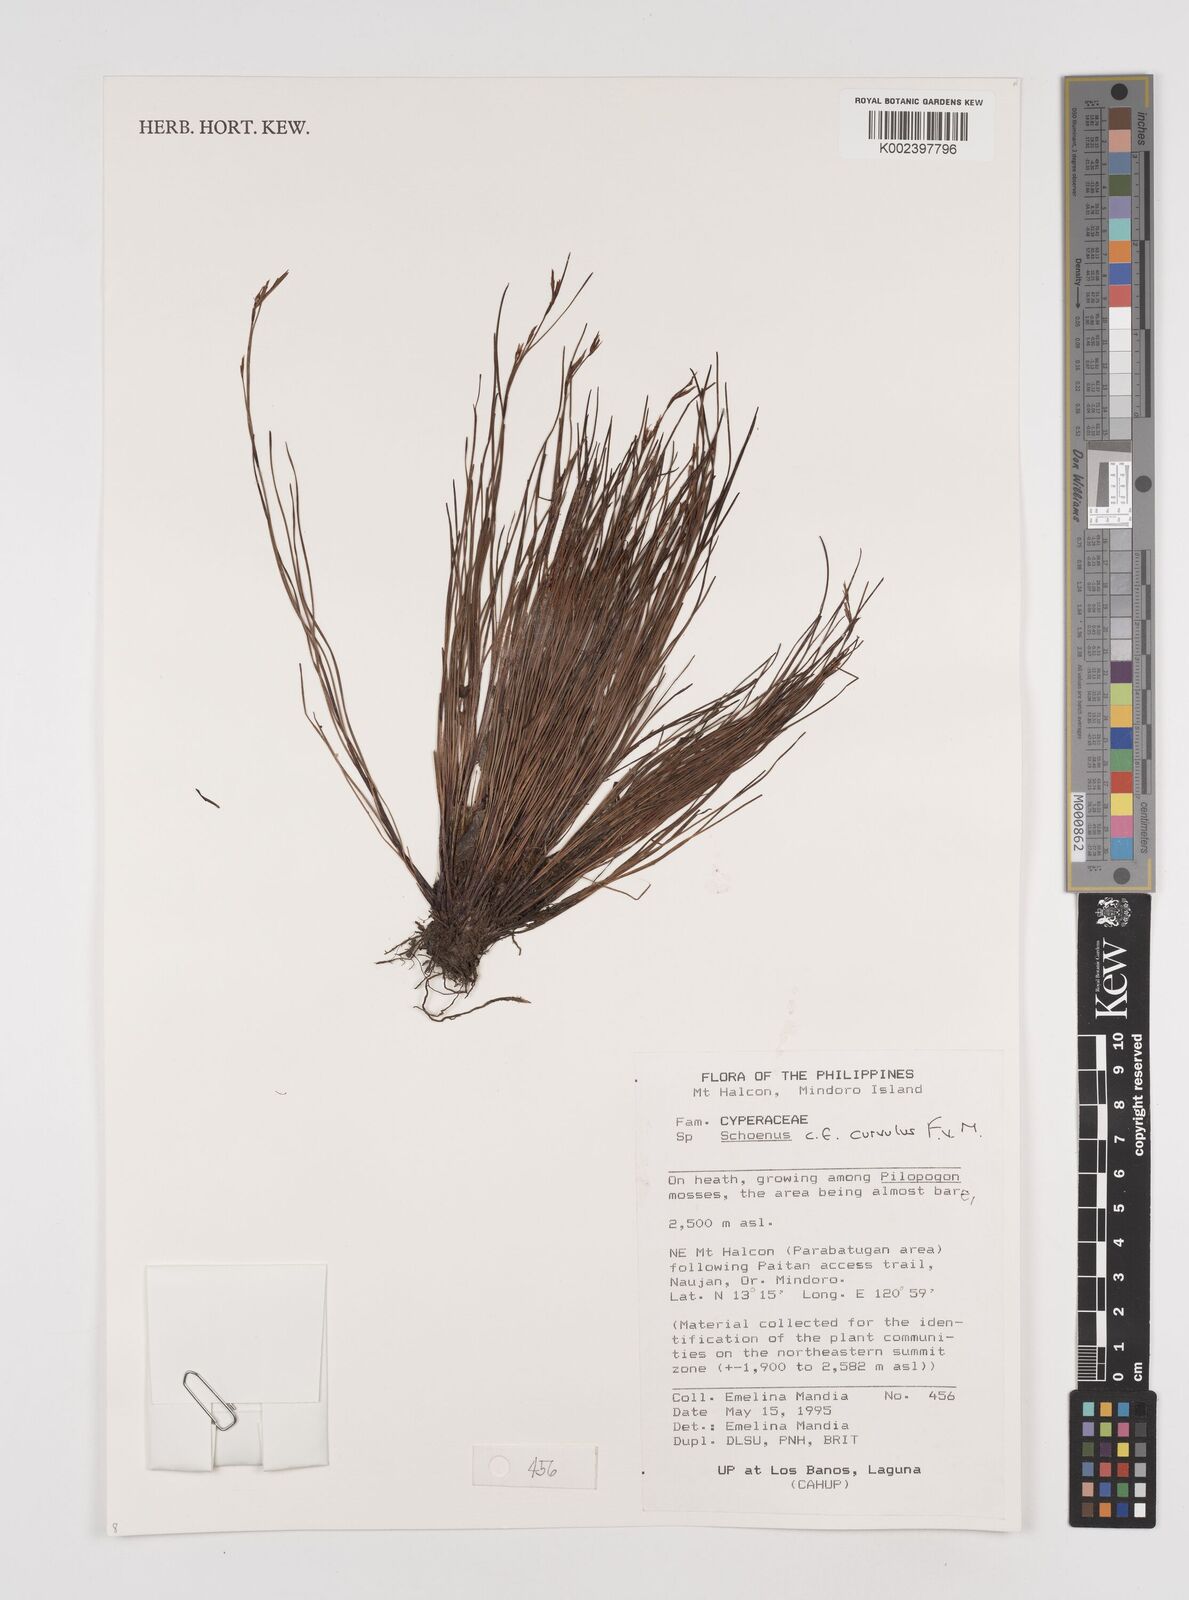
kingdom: Plantae
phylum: Tracheophyta
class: Liliopsida
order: Poales
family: Cyperaceae
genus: Schoenus
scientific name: Schoenus curvulus
